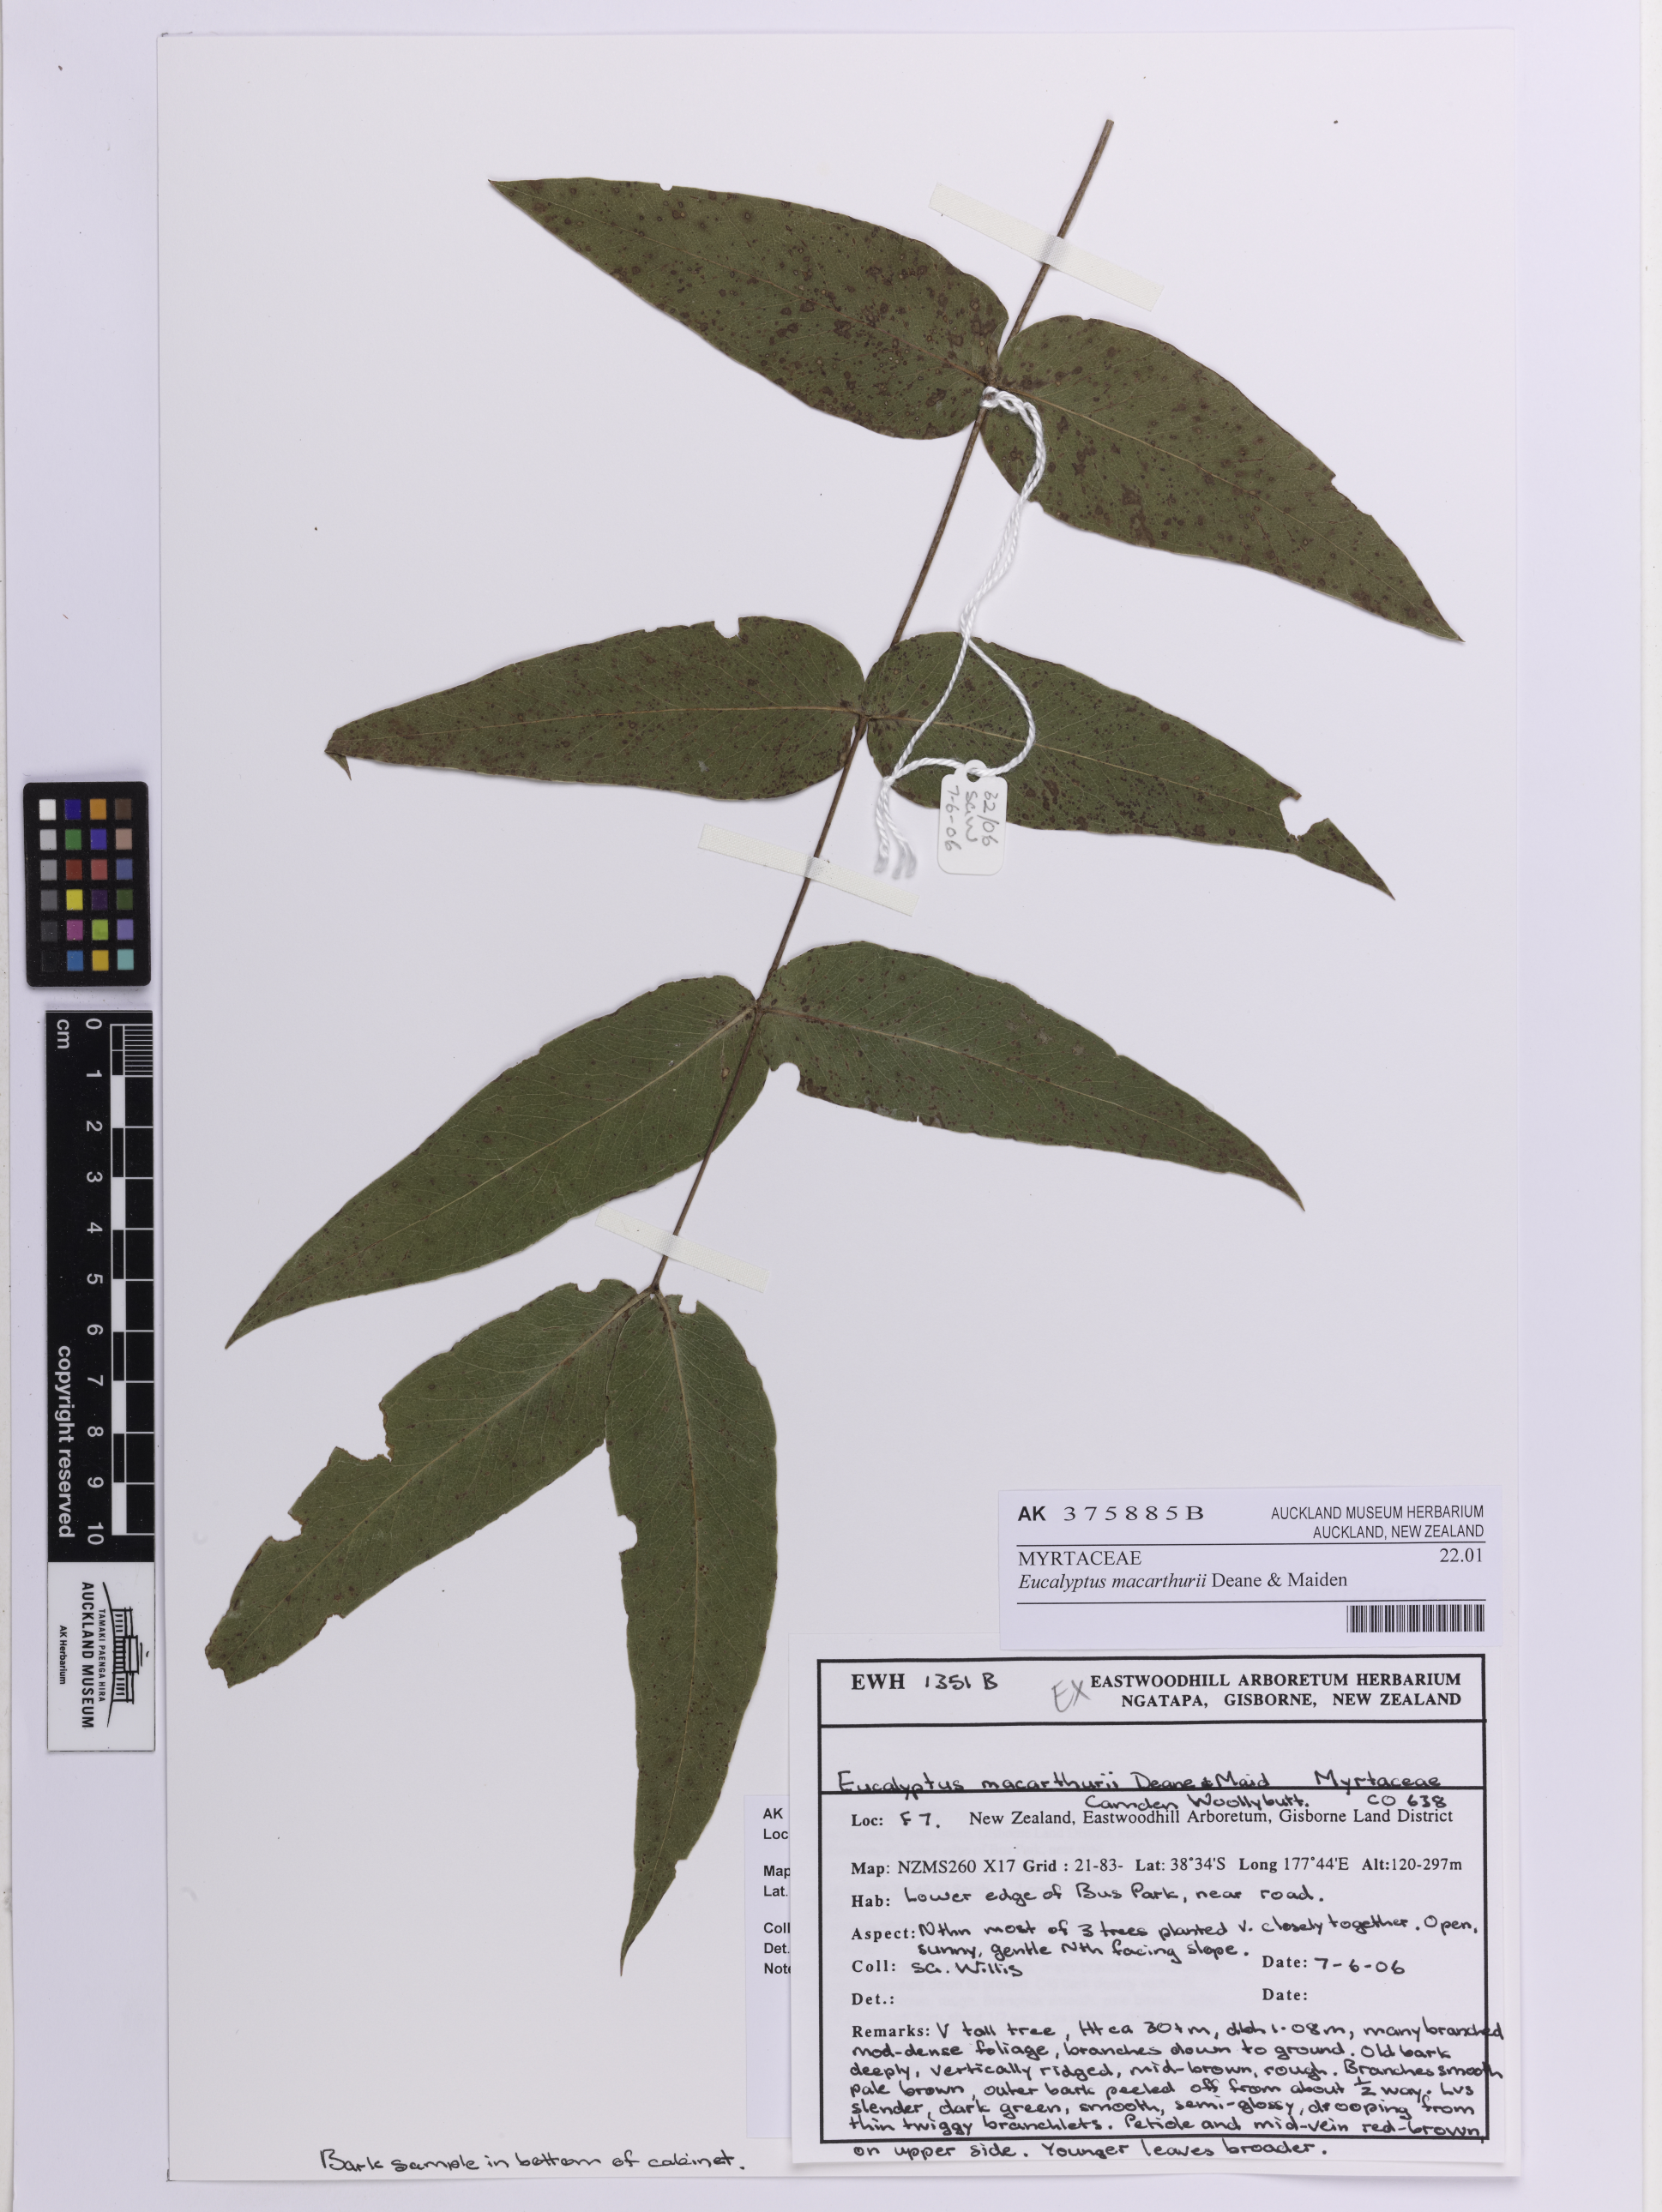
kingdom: Plantae
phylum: Tracheophyta
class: Magnoliopsida
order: Myrtales
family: Myrtaceae
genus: Eucalyptus
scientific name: Eucalyptus macarthurii
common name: Camden-woollybutt
